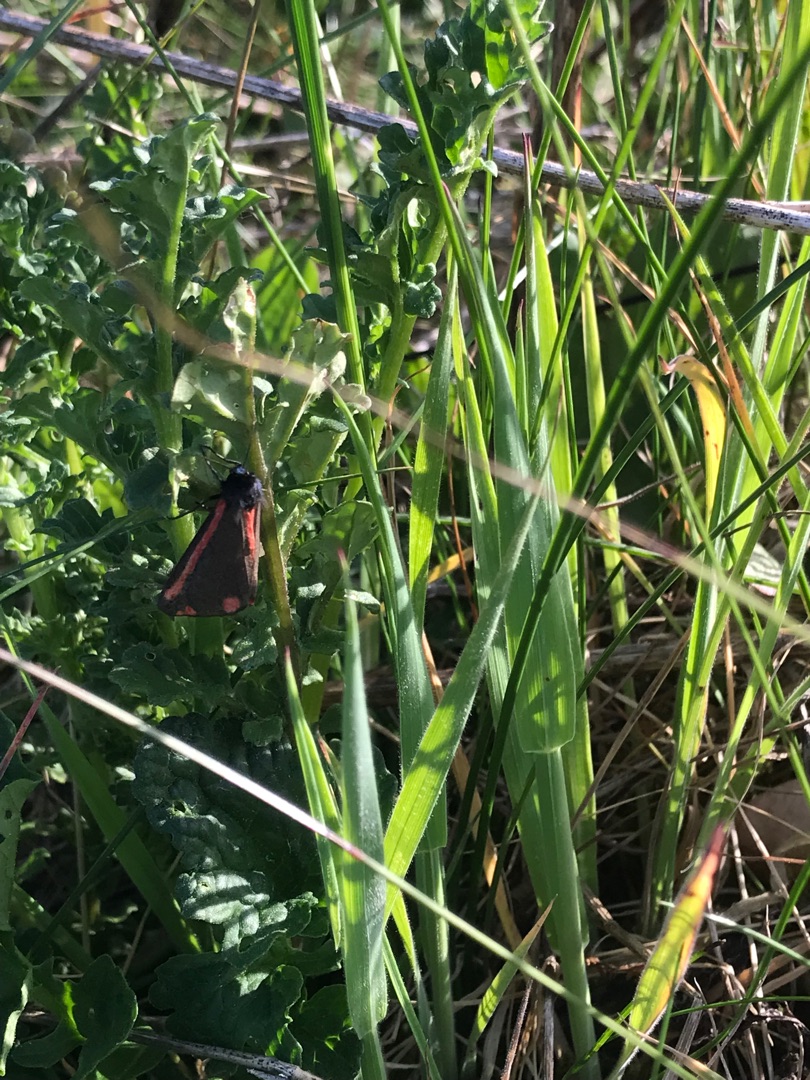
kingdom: Animalia
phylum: Arthropoda
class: Insecta
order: Lepidoptera
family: Erebidae
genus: Tyria
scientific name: Tyria jacobaeae
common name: Blodplet
